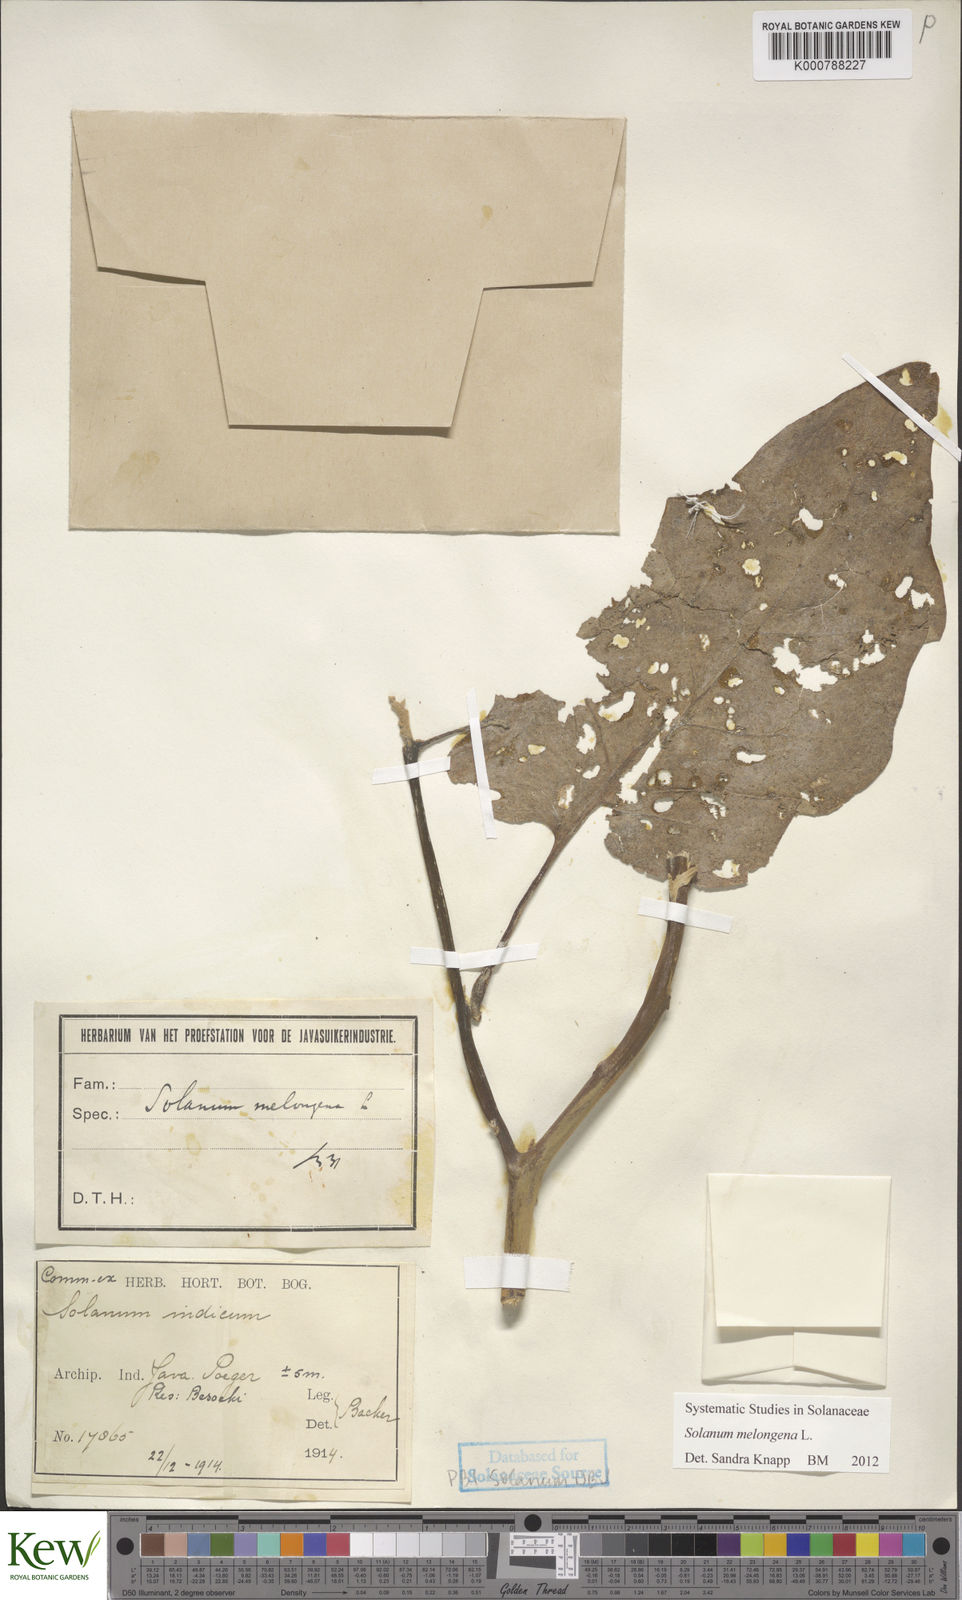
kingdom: Plantae
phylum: Tracheophyta
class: Magnoliopsida
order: Solanales
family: Solanaceae
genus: Solanum
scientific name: Solanum melongena
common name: Eggplant
